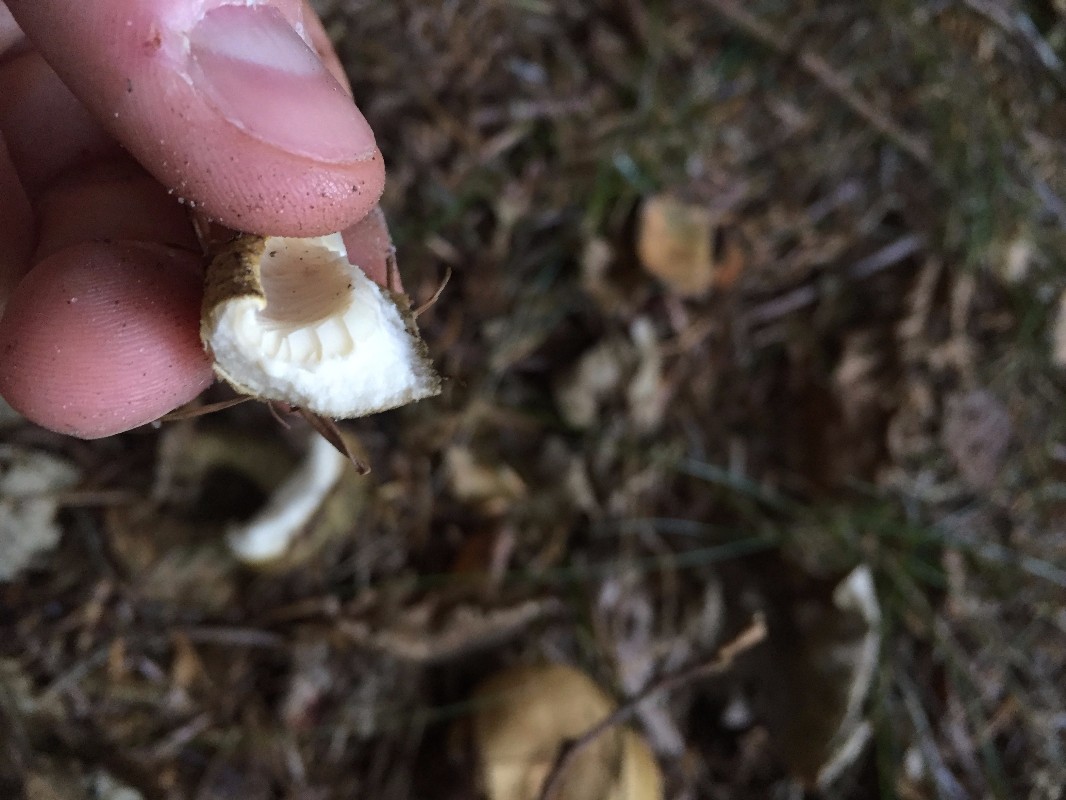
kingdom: Fungi
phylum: Basidiomycota
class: Agaricomycetes
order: Russulales
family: Russulaceae
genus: Lactarius
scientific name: Lactarius necator
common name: manddraber-mælkehat
